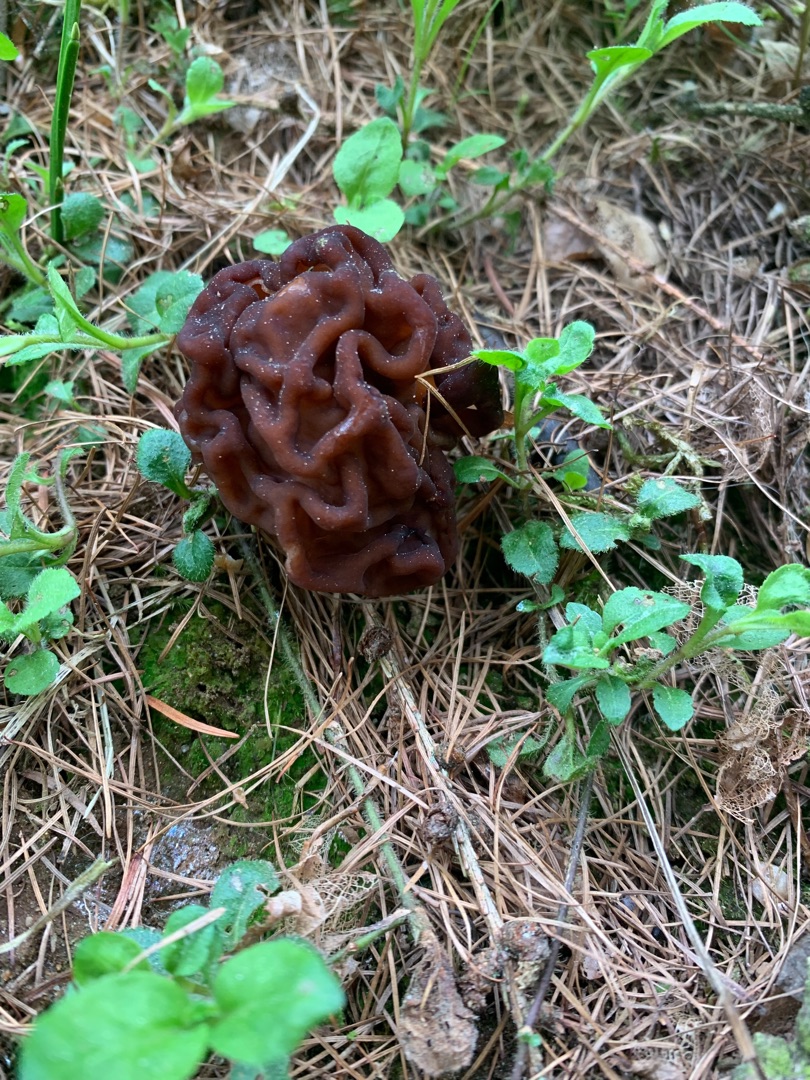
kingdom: Fungi
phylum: Ascomycota
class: Pezizomycetes
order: Pezizales
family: Discinaceae
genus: Gyromitra
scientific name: Gyromitra esculenta
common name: Ægte stenmorkel
